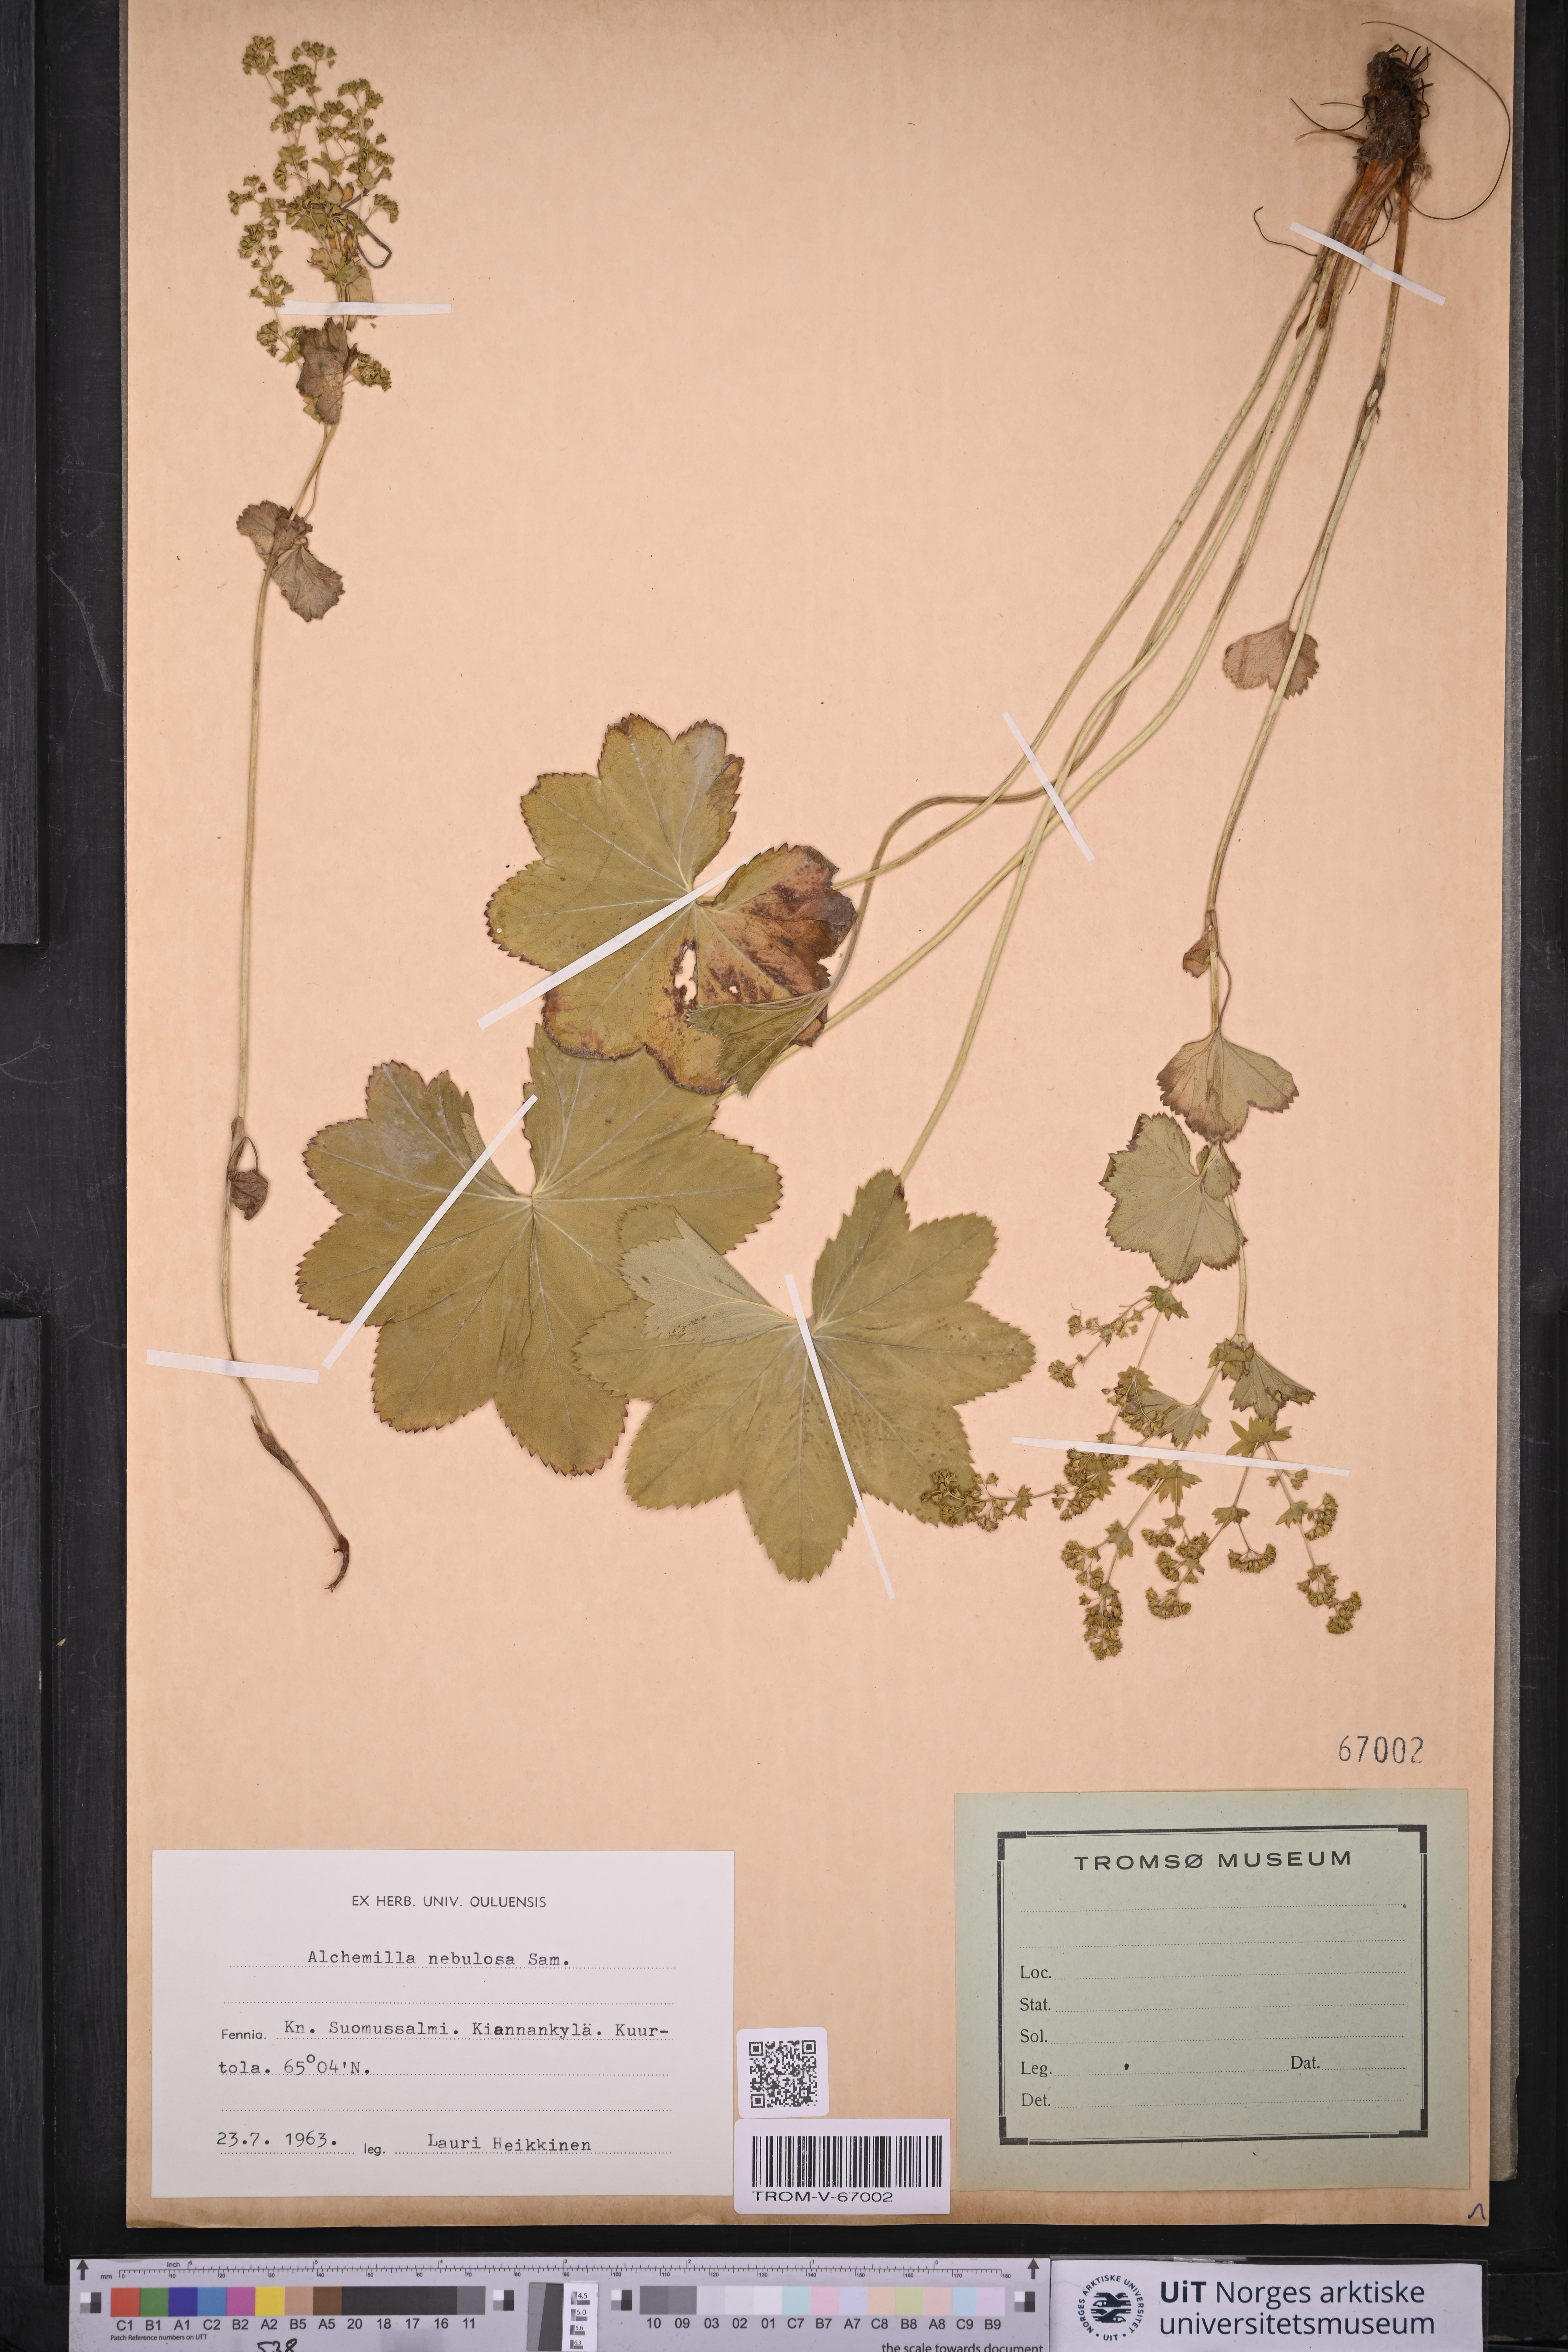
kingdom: Plantae
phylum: Tracheophyta
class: Magnoliopsida
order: Rosales
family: Rosaceae
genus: Alchemilla
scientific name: Alchemilla baltica
